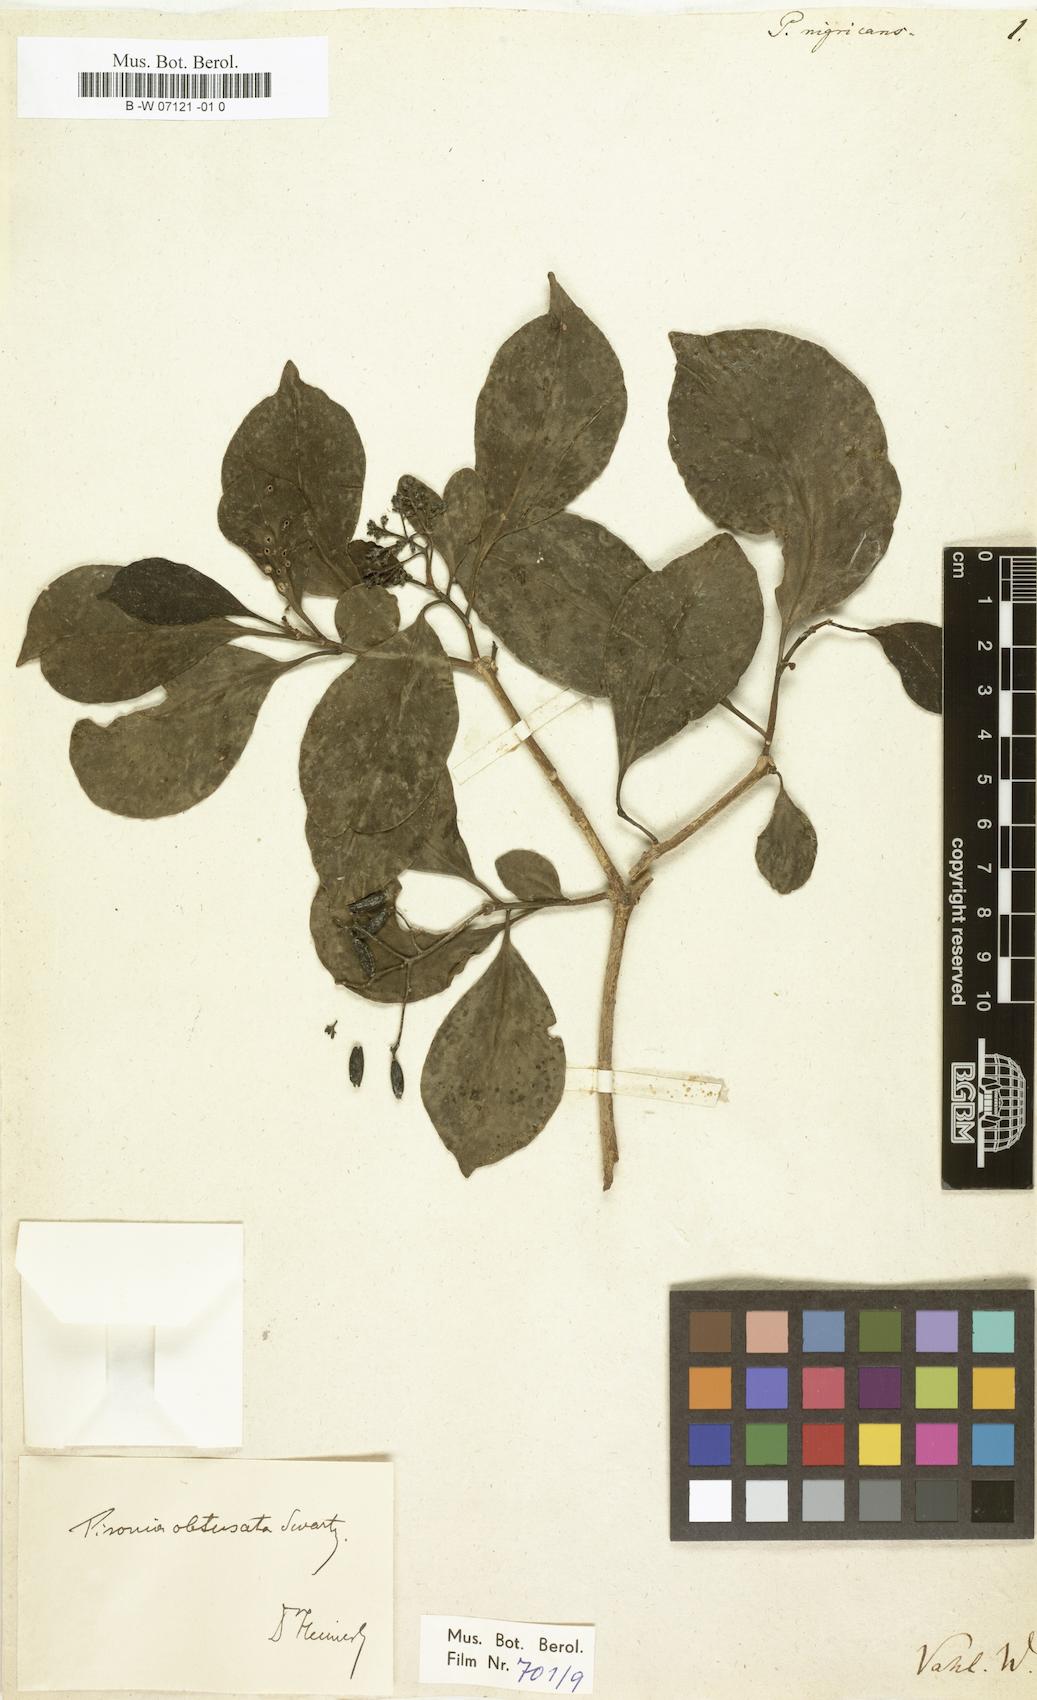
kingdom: Plantae
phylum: Tracheophyta
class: Magnoliopsida
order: Caryophyllales
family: Nyctaginaceae
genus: Pisonia
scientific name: Pisonia nigricans
